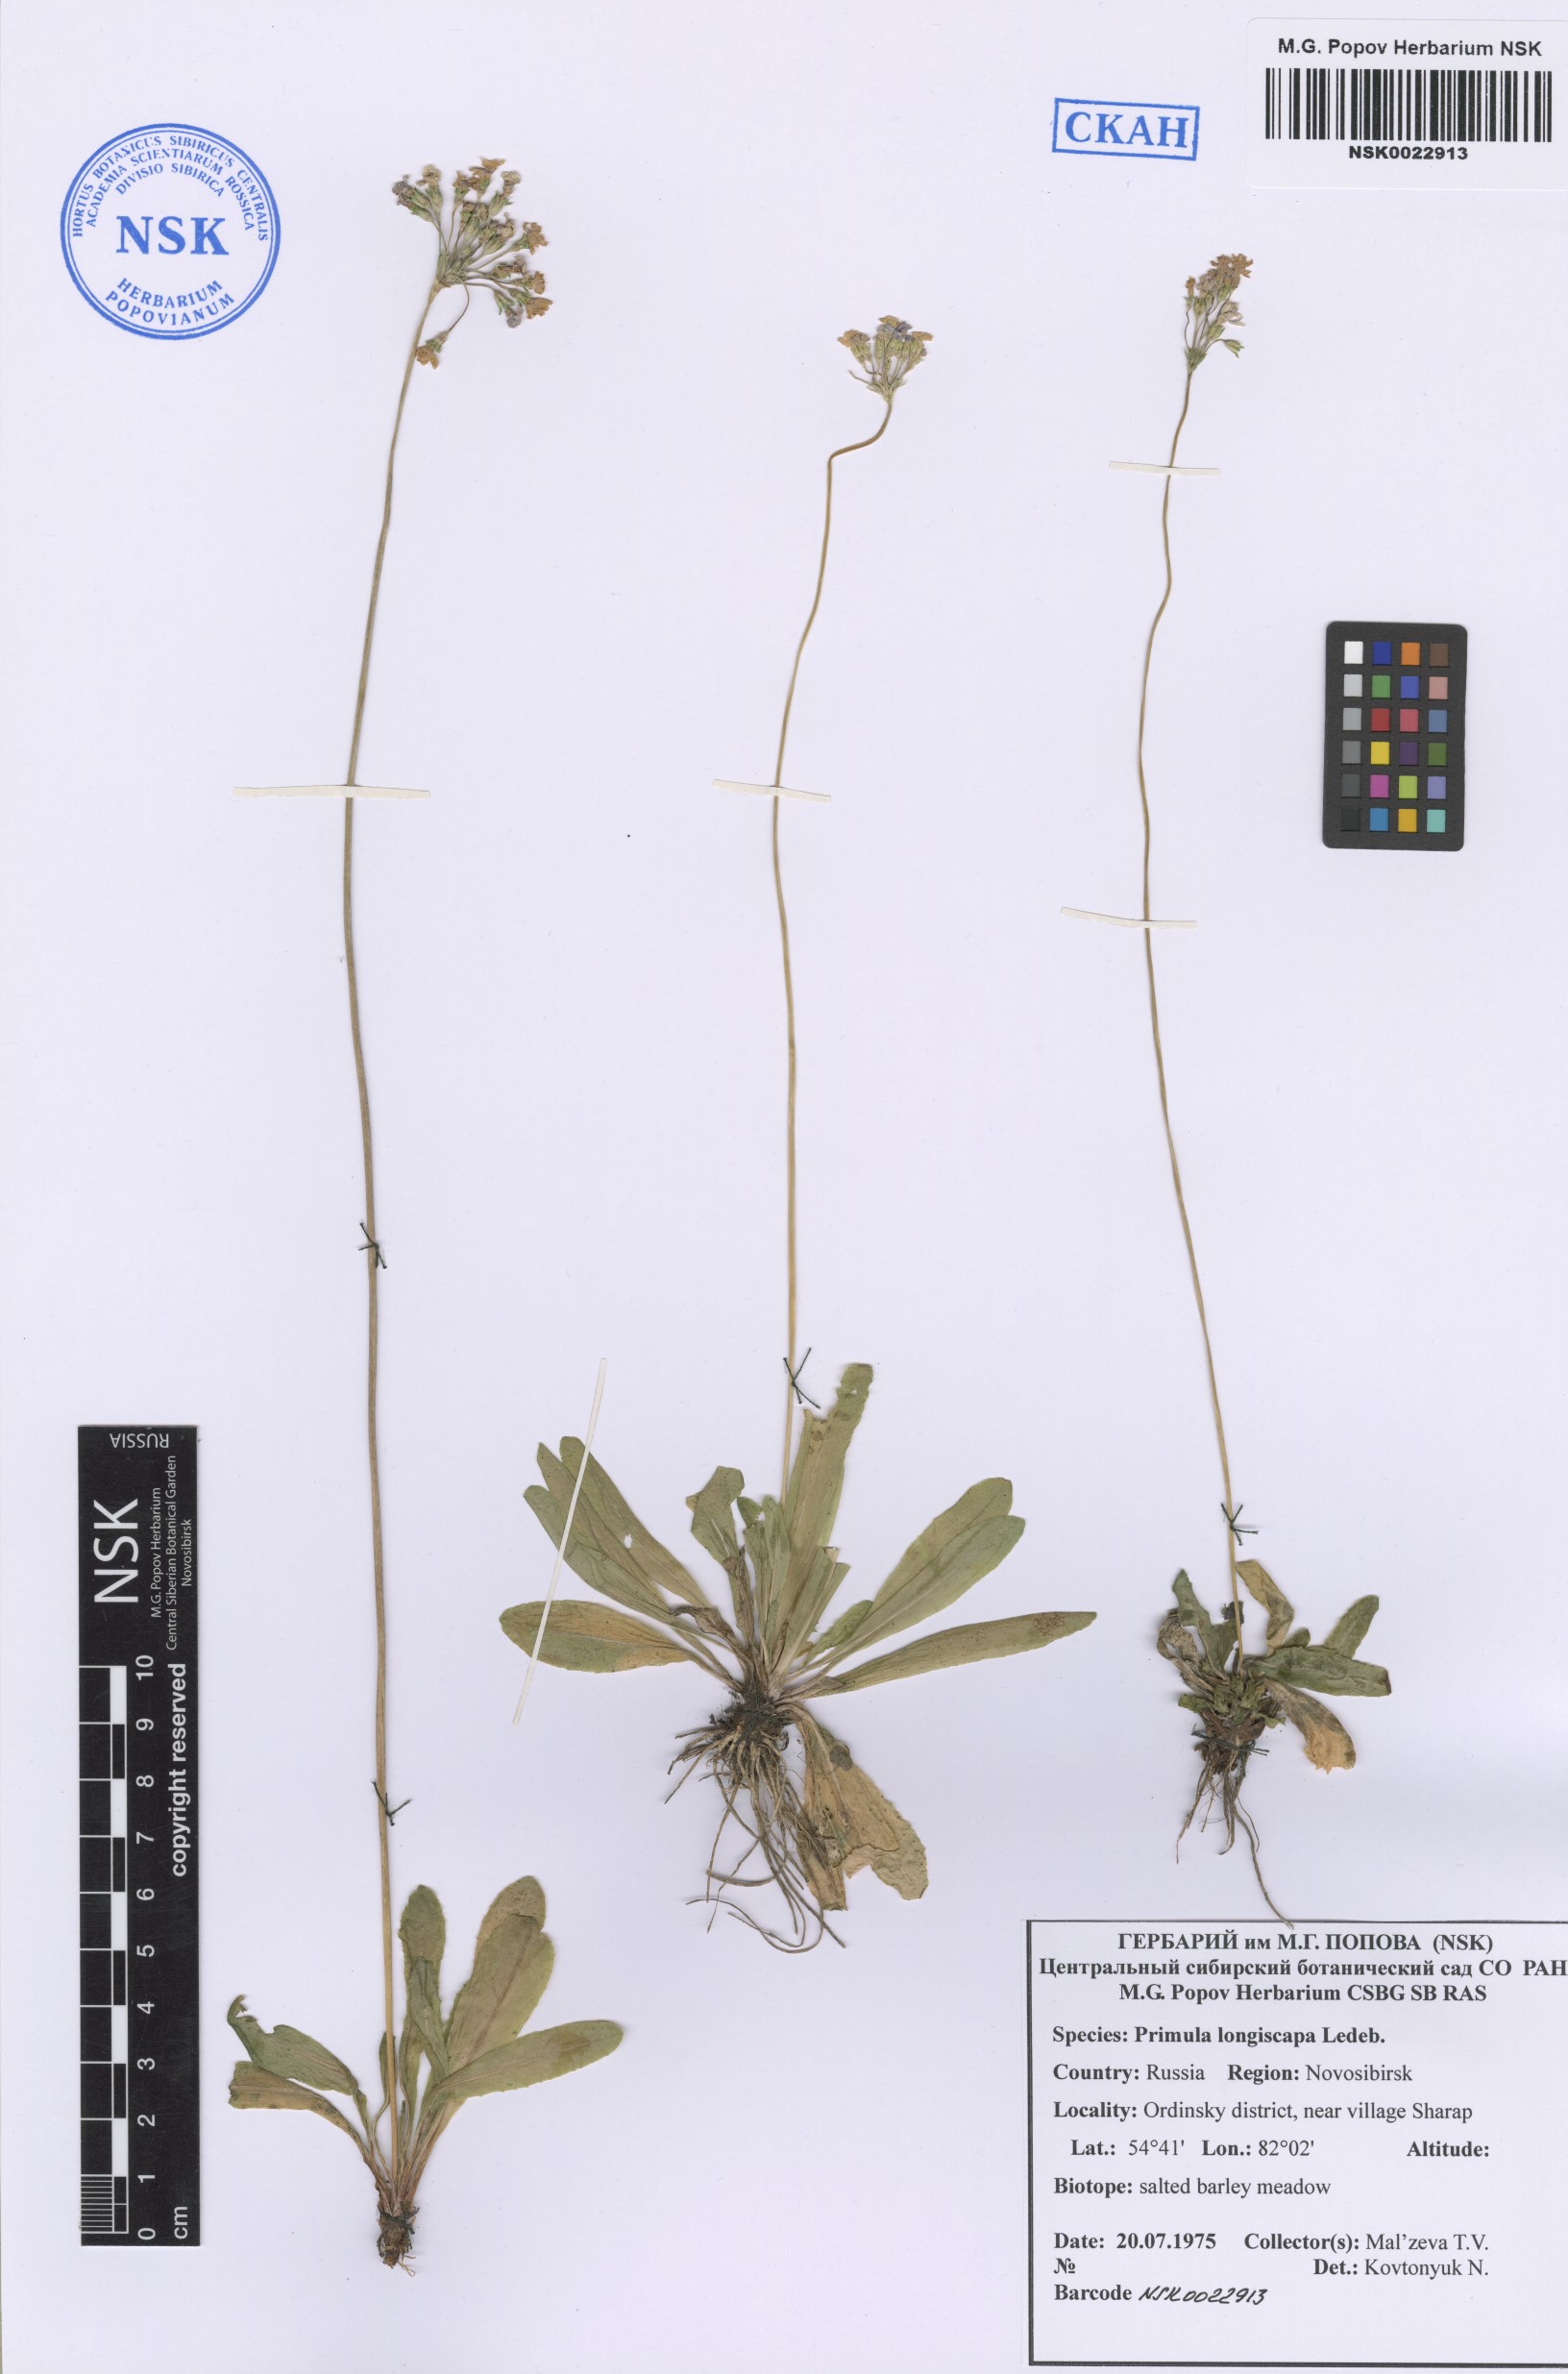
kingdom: Plantae
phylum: Tracheophyta
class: Magnoliopsida
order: Ericales
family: Primulaceae
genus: Primula
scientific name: Primula longiscapa
